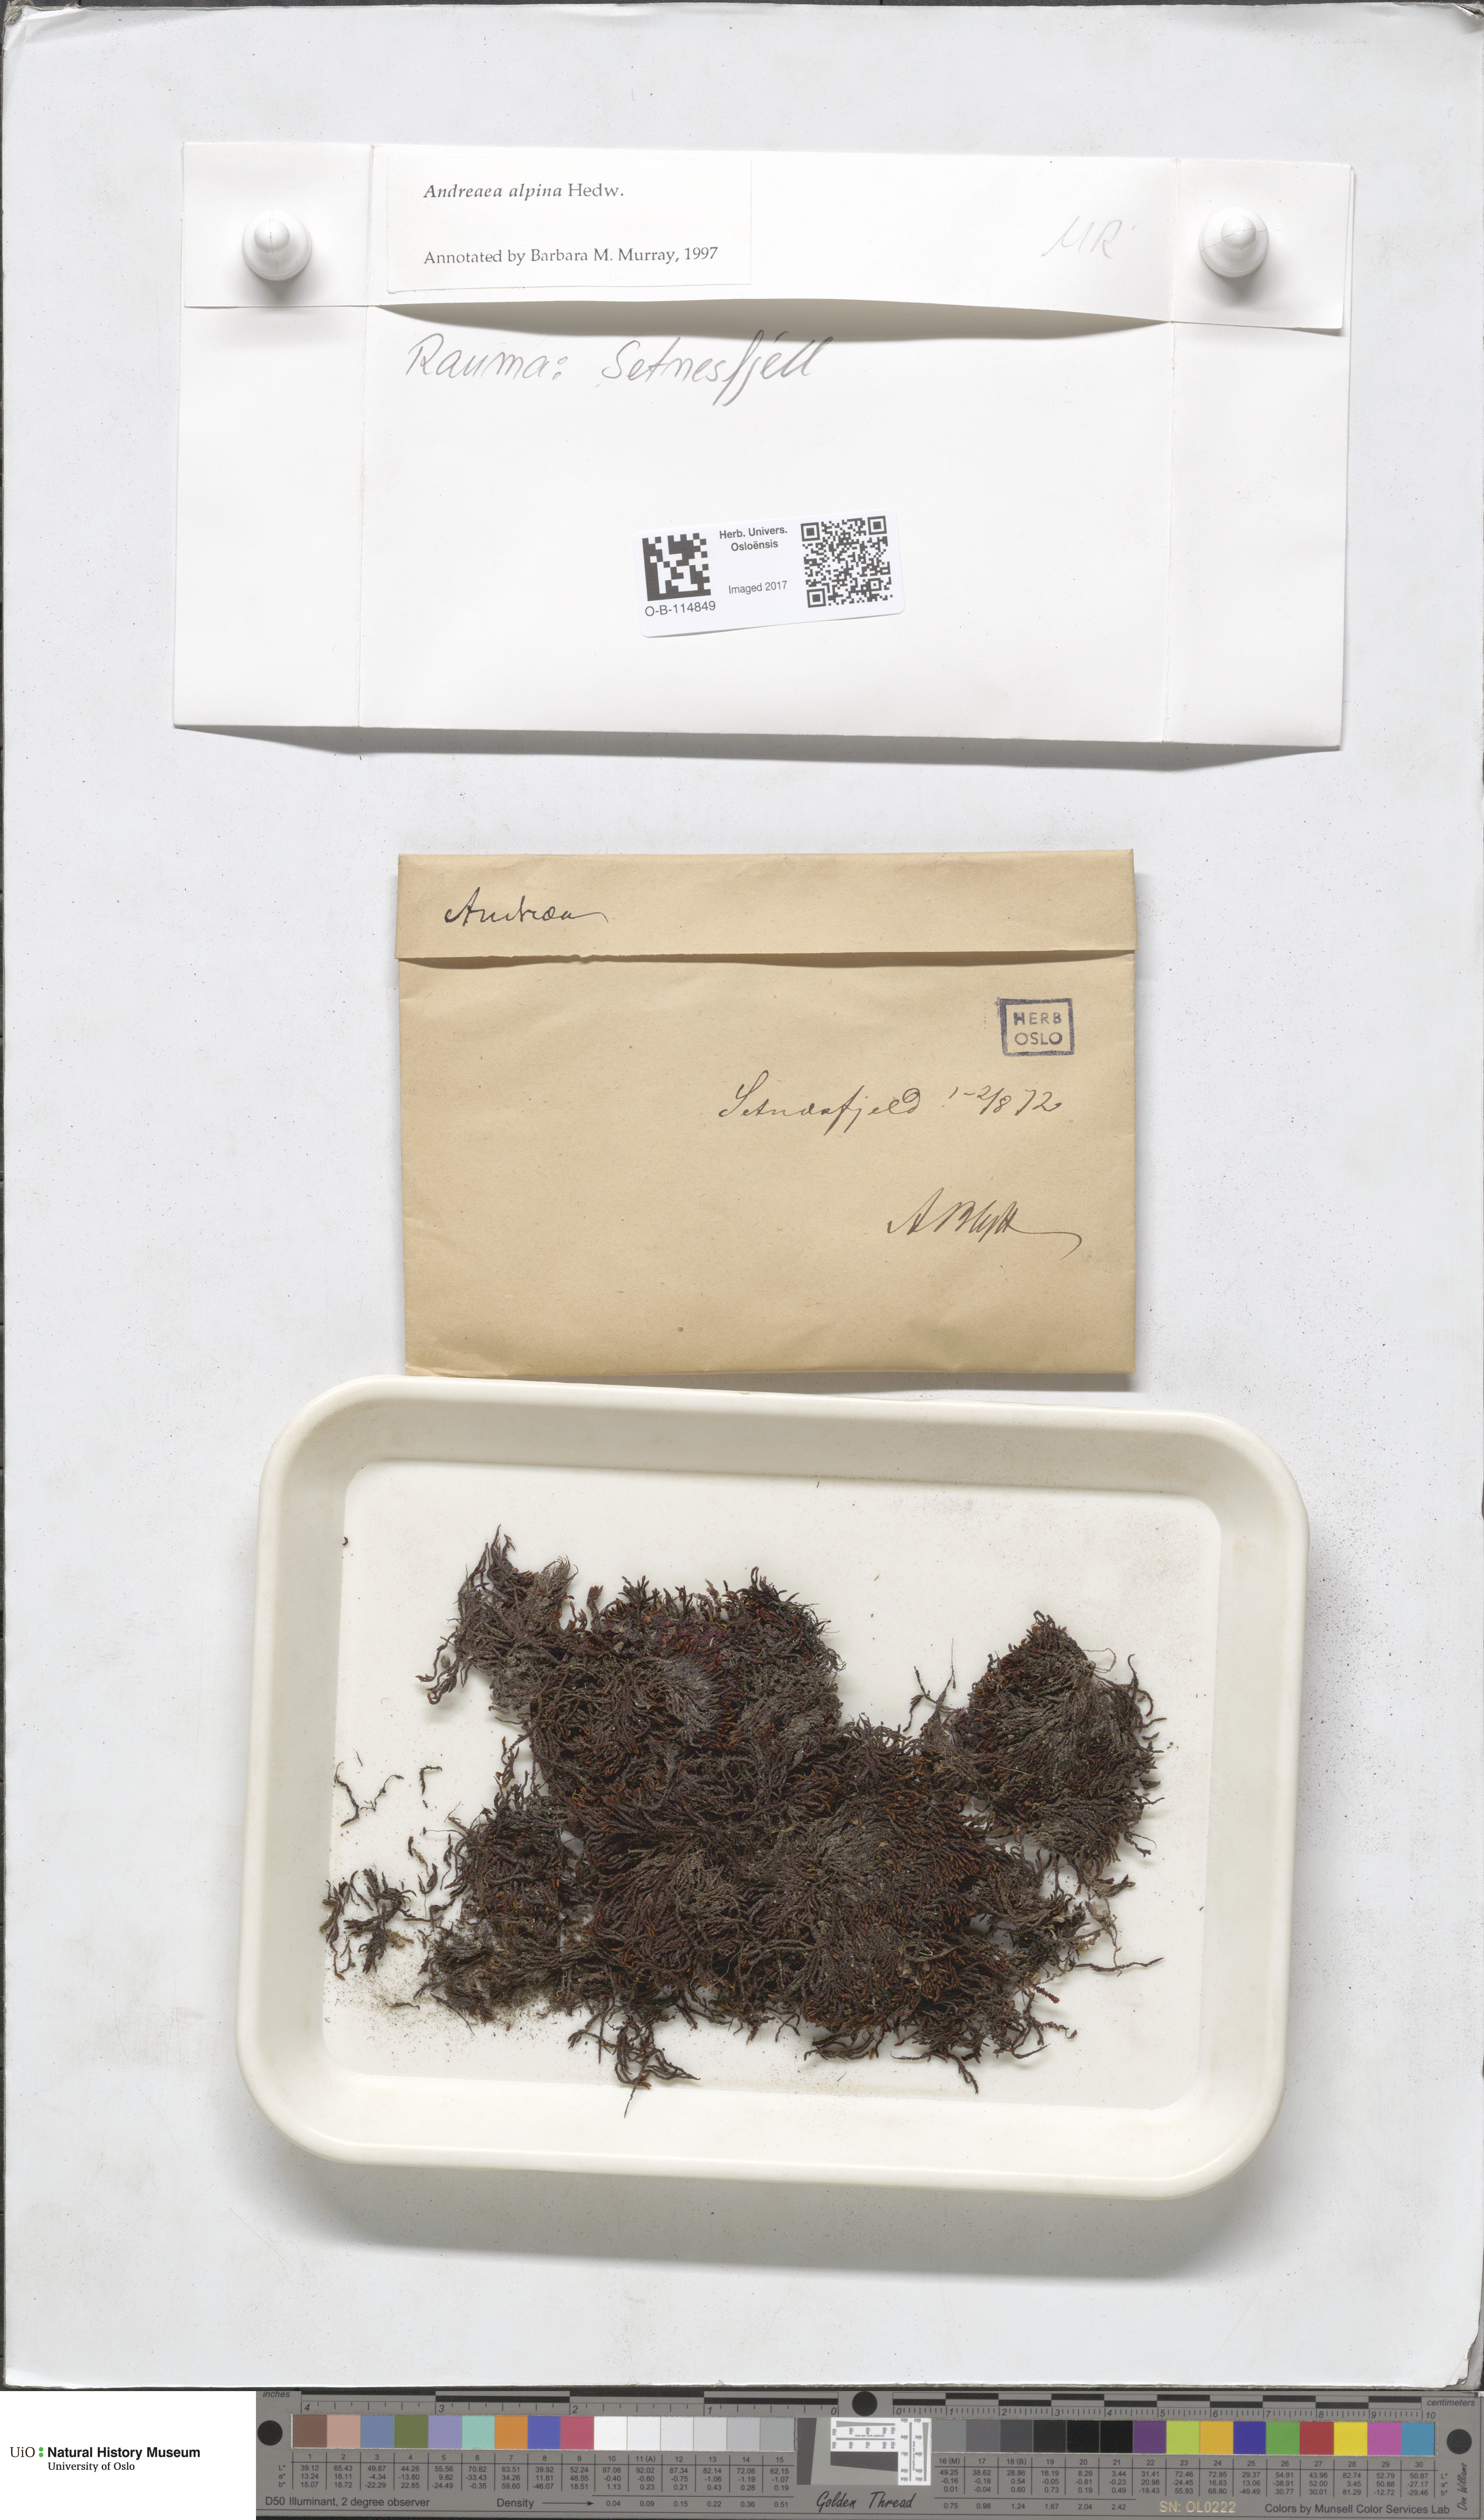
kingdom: Plantae
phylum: Bryophyta
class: Andreaeopsida
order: Andreaeales
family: Andreaeaceae
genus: Andreaea
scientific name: Andreaea hookeri
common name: Alpine rock-moss
